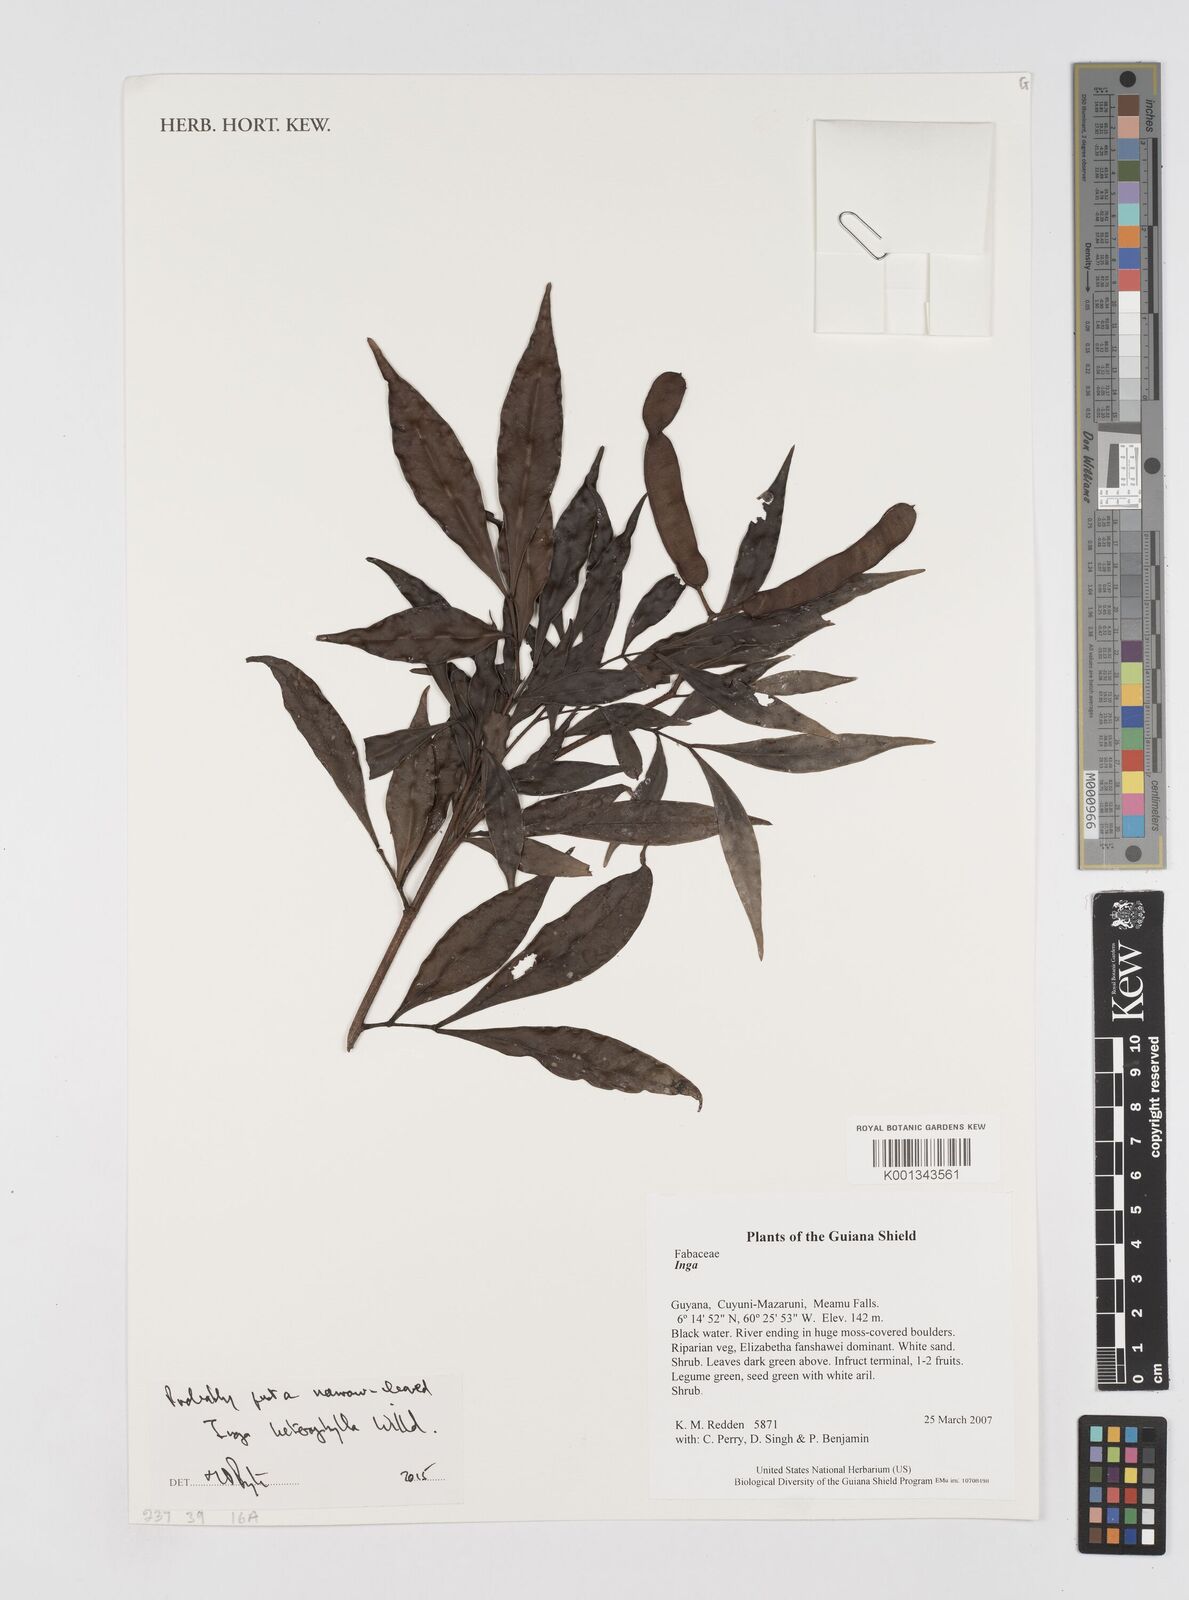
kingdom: Plantae
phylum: Tracheophyta
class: Magnoliopsida
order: Fabales
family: Fabaceae
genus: Inga
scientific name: Inga heterophylla
